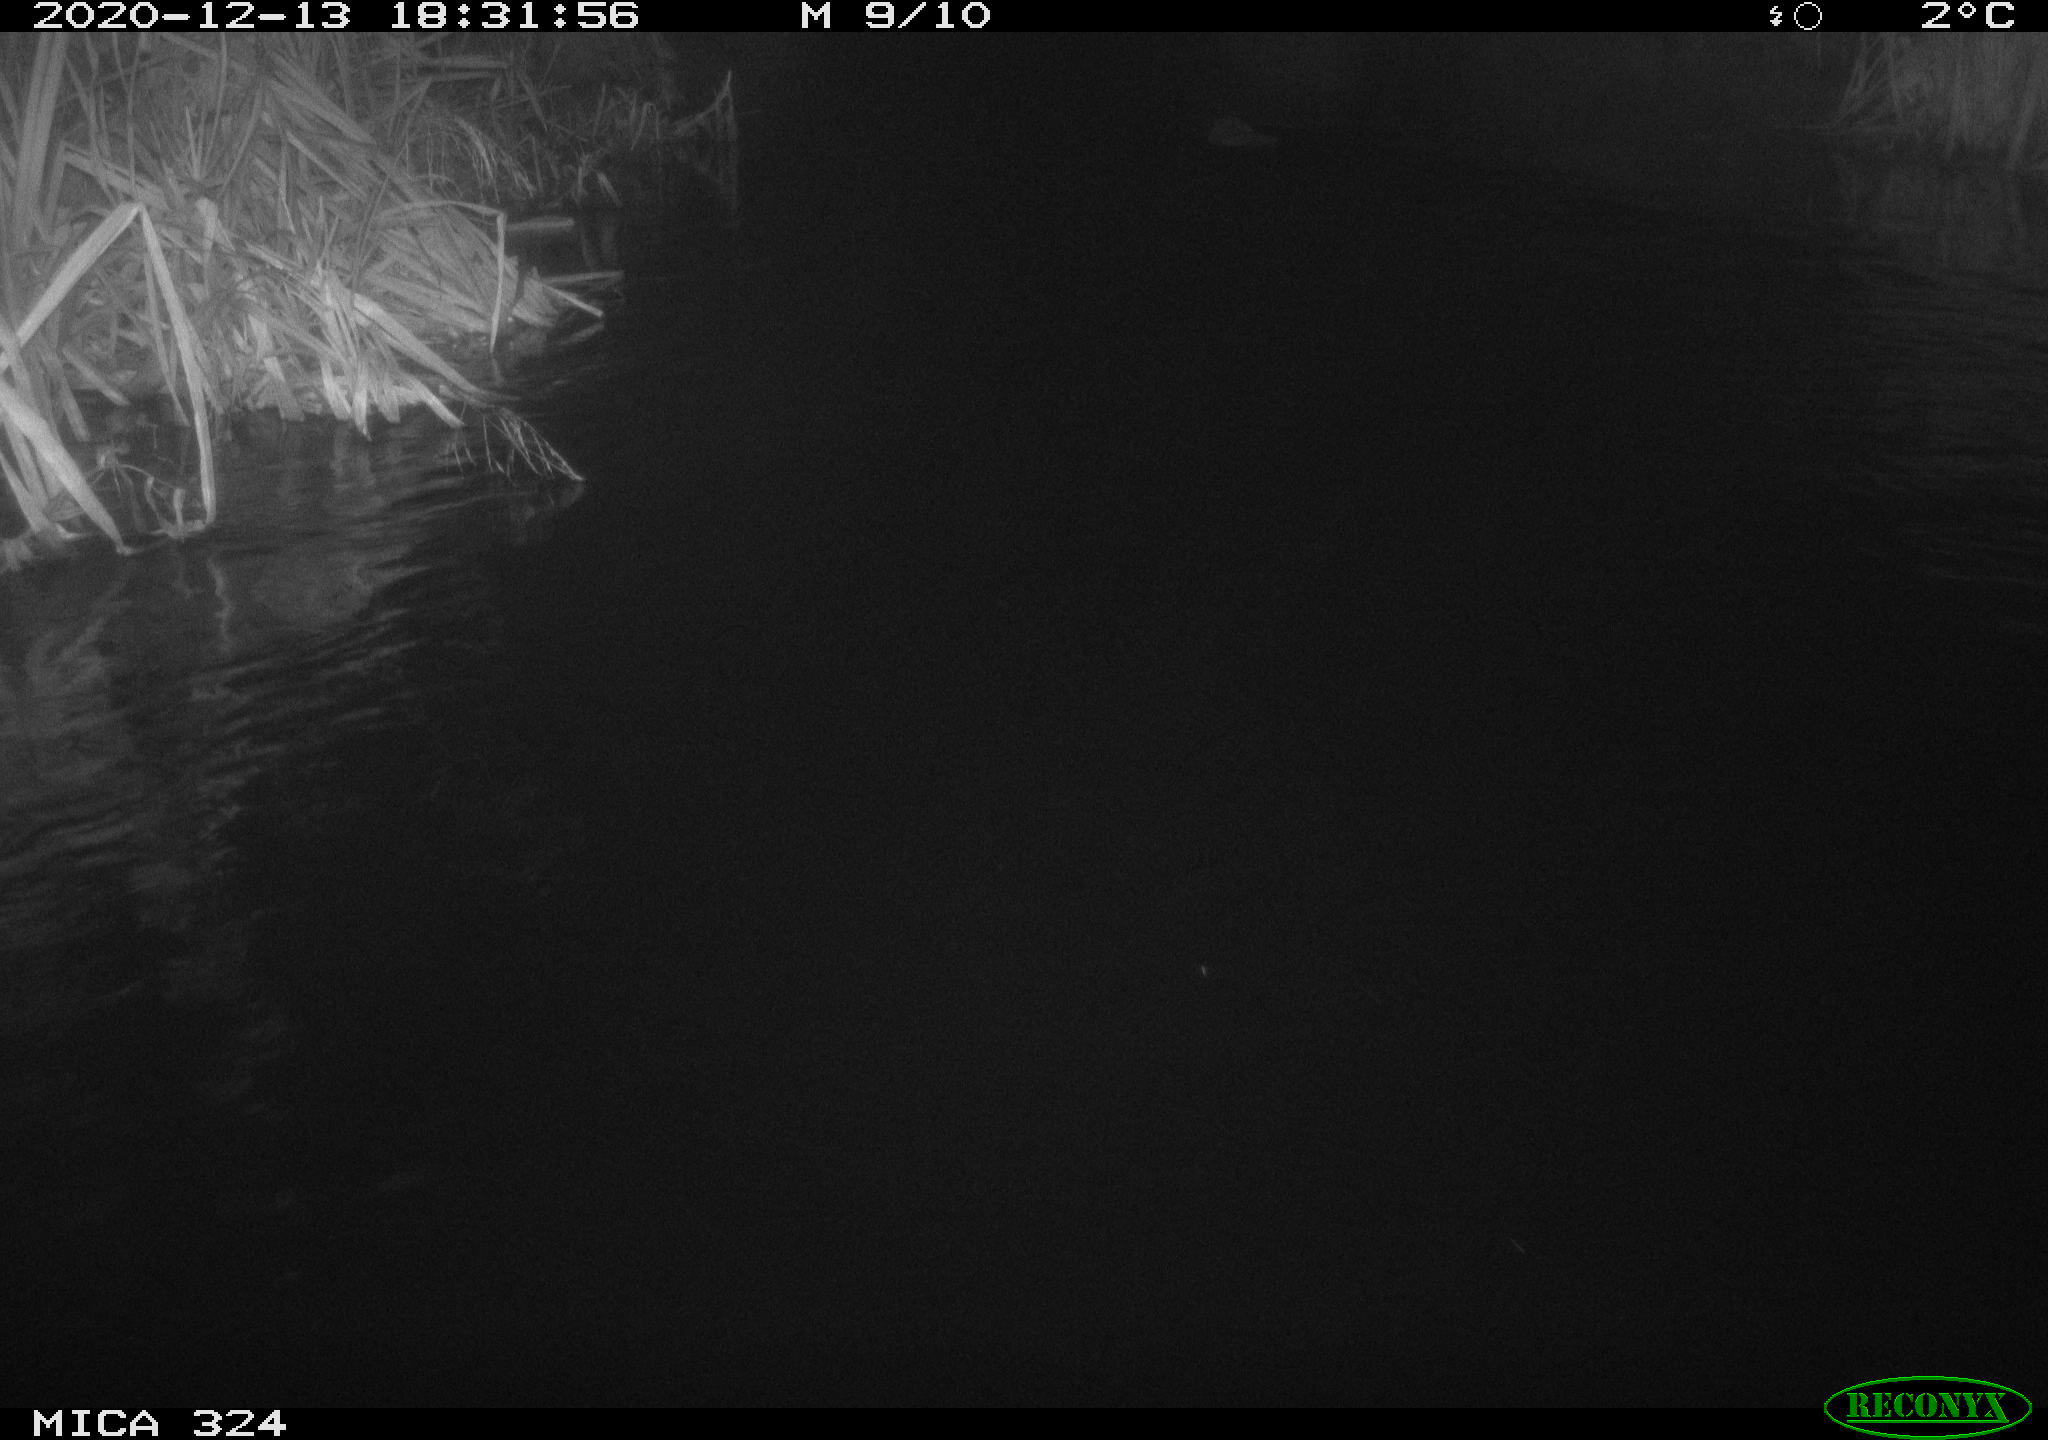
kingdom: Animalia
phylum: Chordata
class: Mammalia
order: Rodentia
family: Castoridae
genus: Castor
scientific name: Castor fiber
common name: Eurasian beaver
